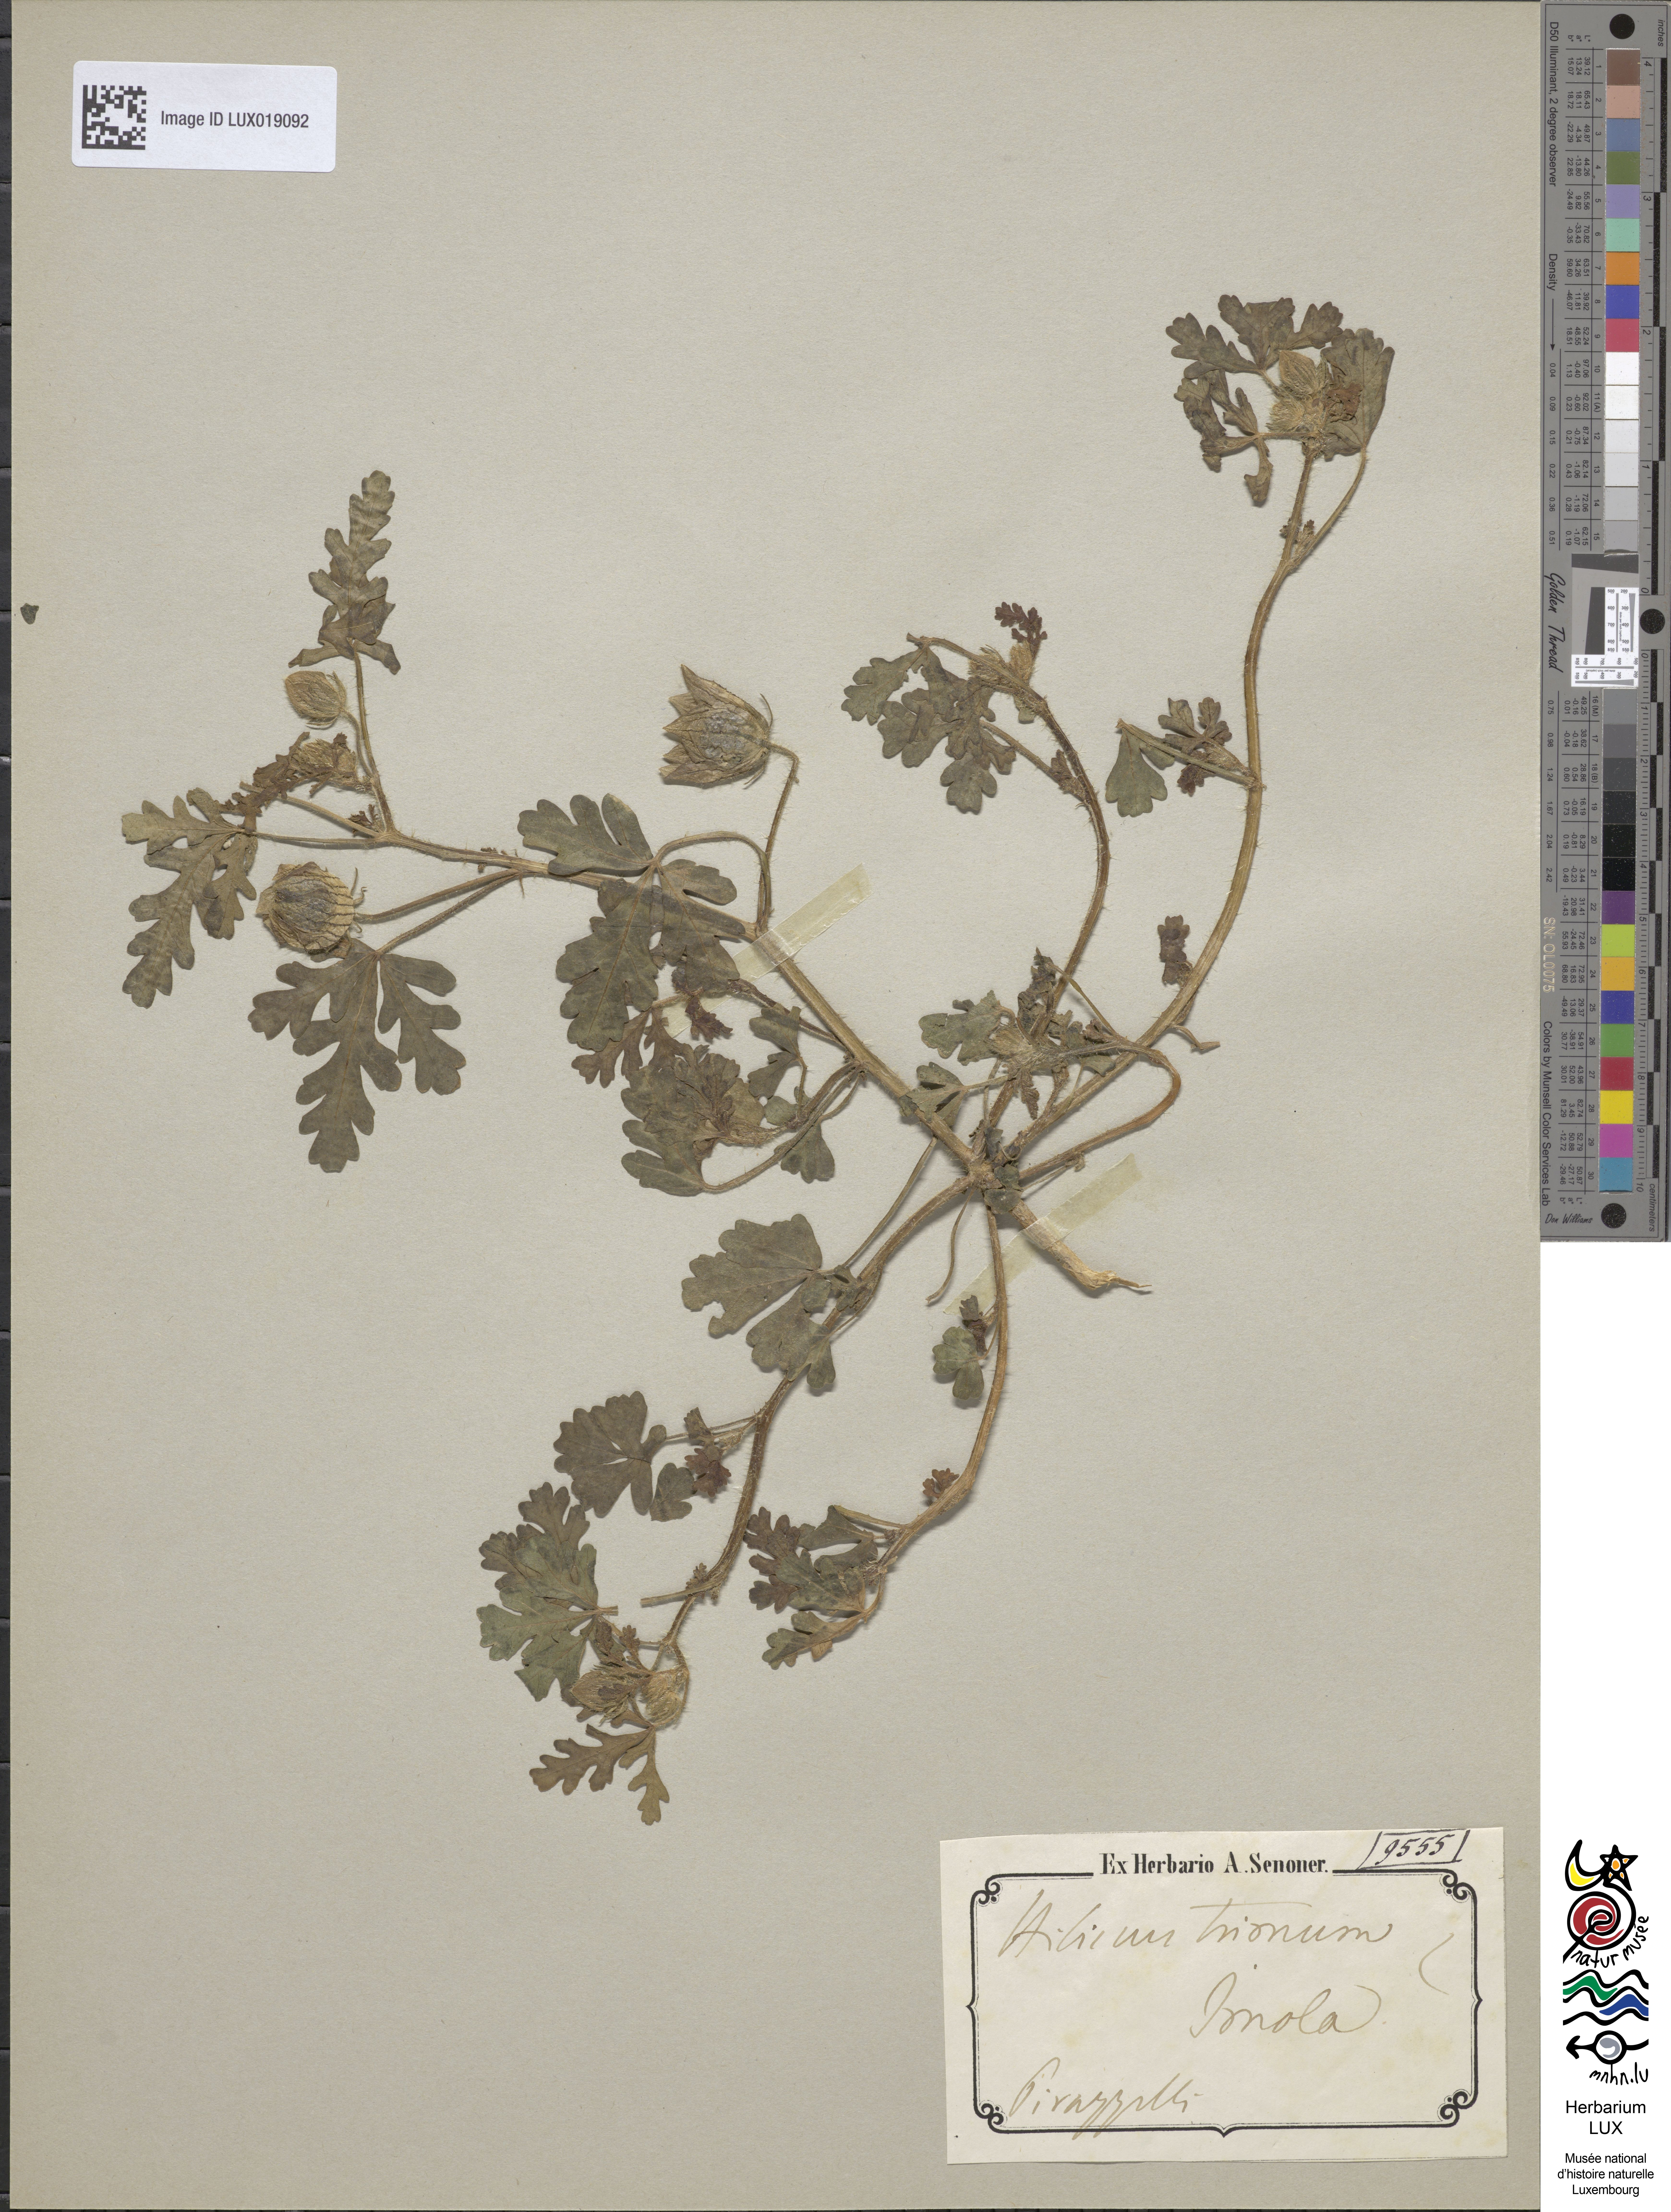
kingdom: Plantae
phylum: Tracheophyta
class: Magnoliopsida
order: Malvales
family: Malvaceae
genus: Hibiscus
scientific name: Hibiscus trionum
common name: Bladder ketmia
